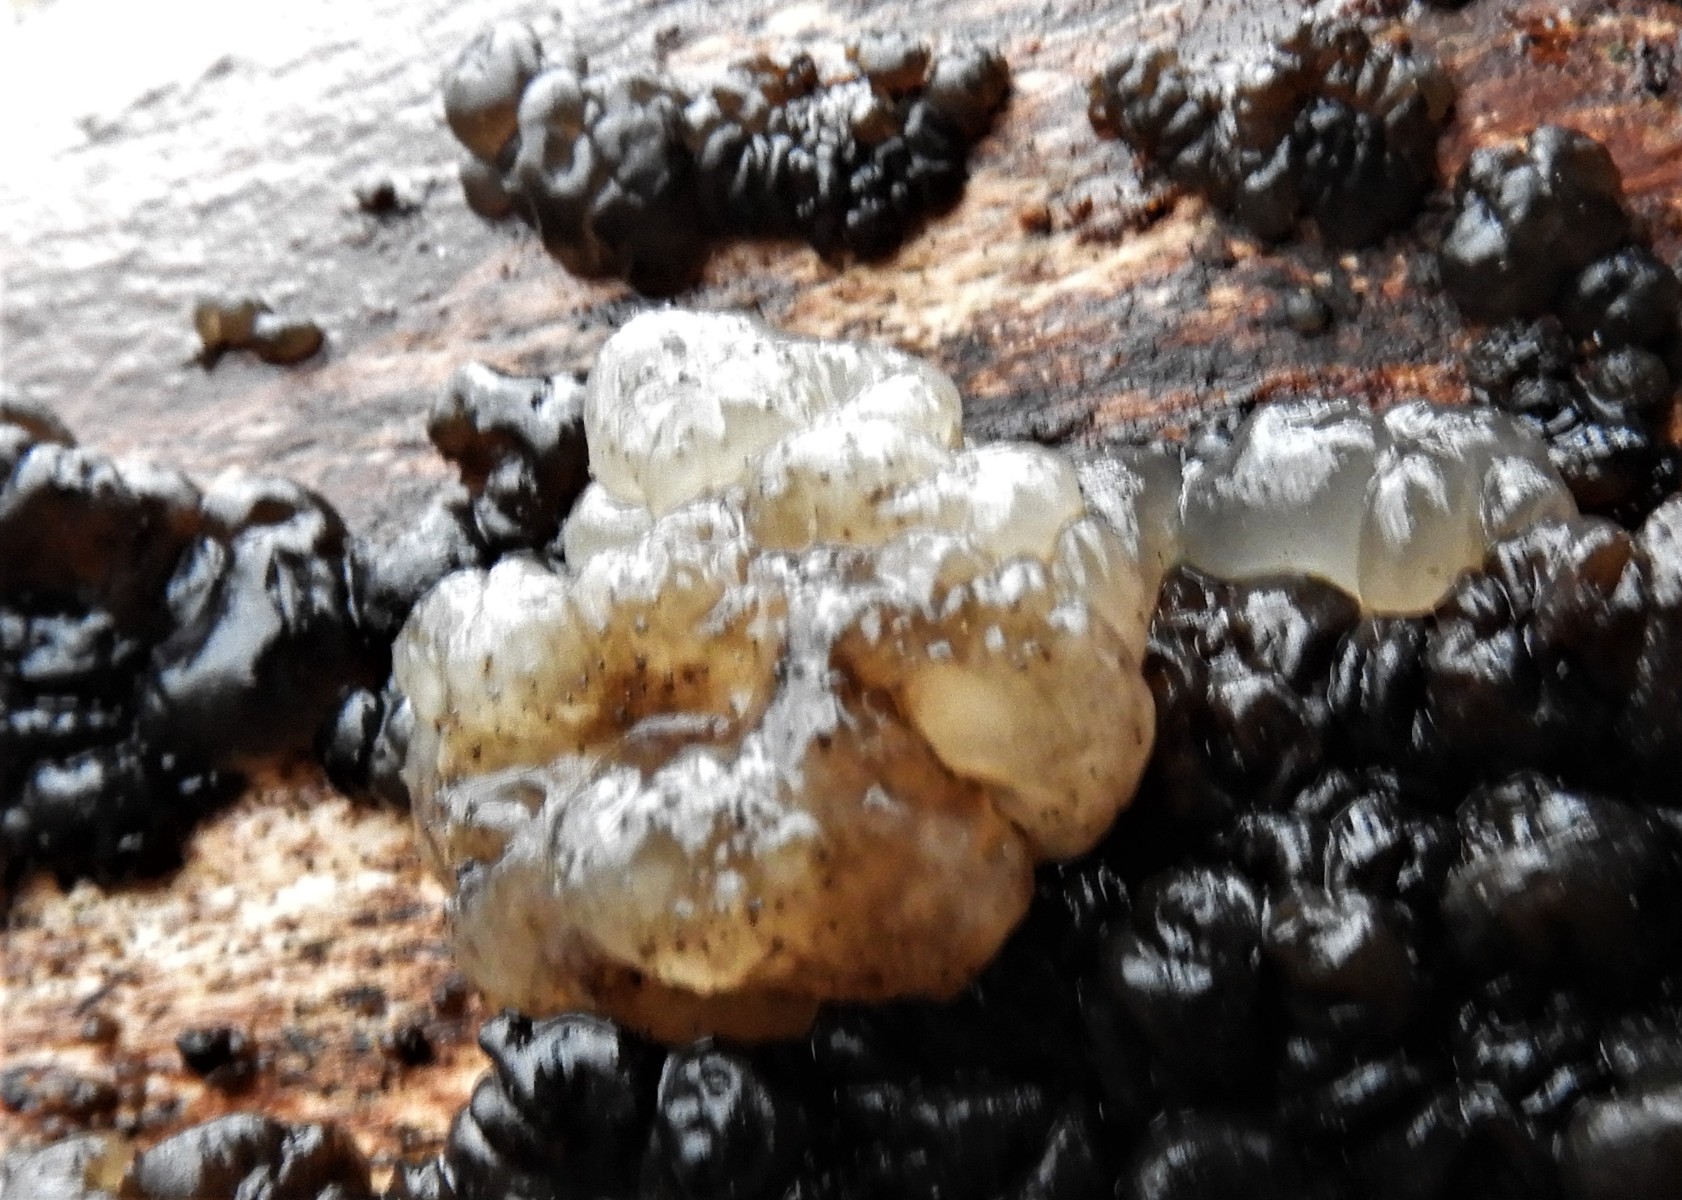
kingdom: Fungi
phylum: Basidiomycota
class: Agaricomycetes
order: Auriculariales
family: Auriculariaceae
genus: Exidia
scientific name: Exidia nigricans
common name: almindelig bævretop
